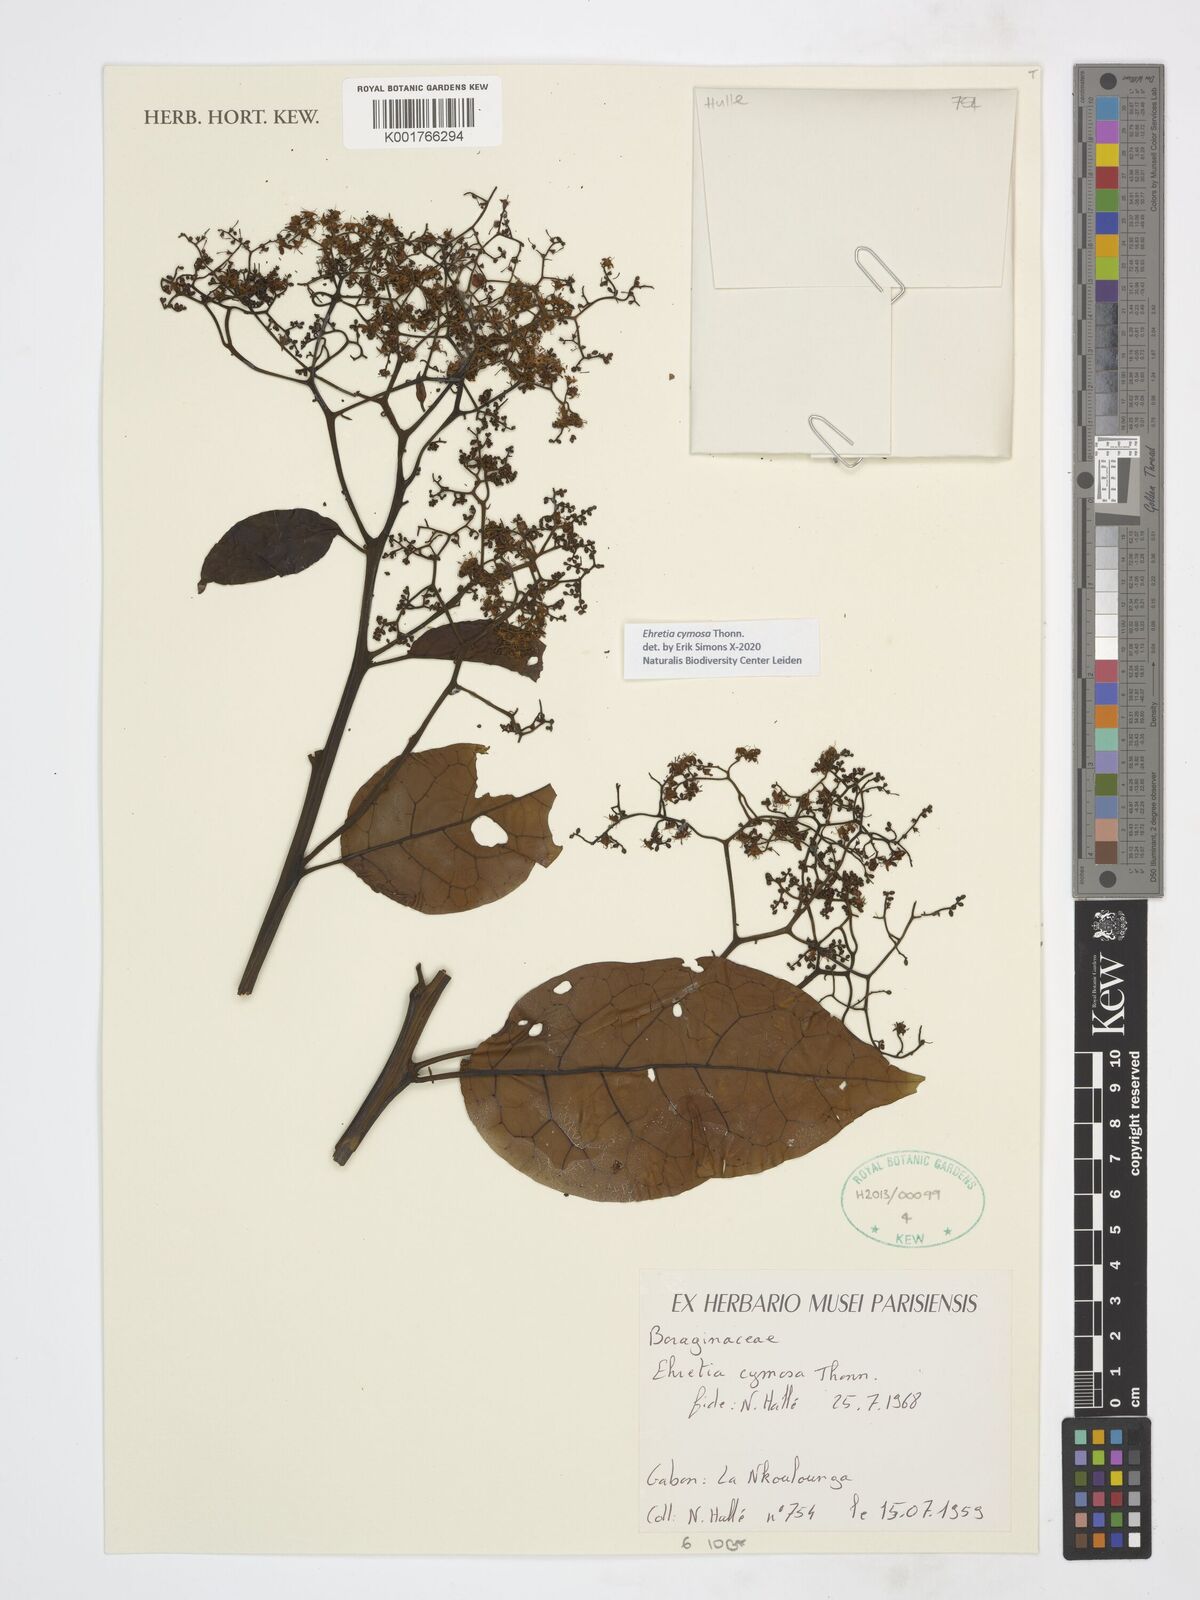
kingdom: Plantae
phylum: Tracheophyta
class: Magnoliopsida
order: Boraginales
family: Ehretiaceae
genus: Ehretia
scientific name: Ehretia cymosa
